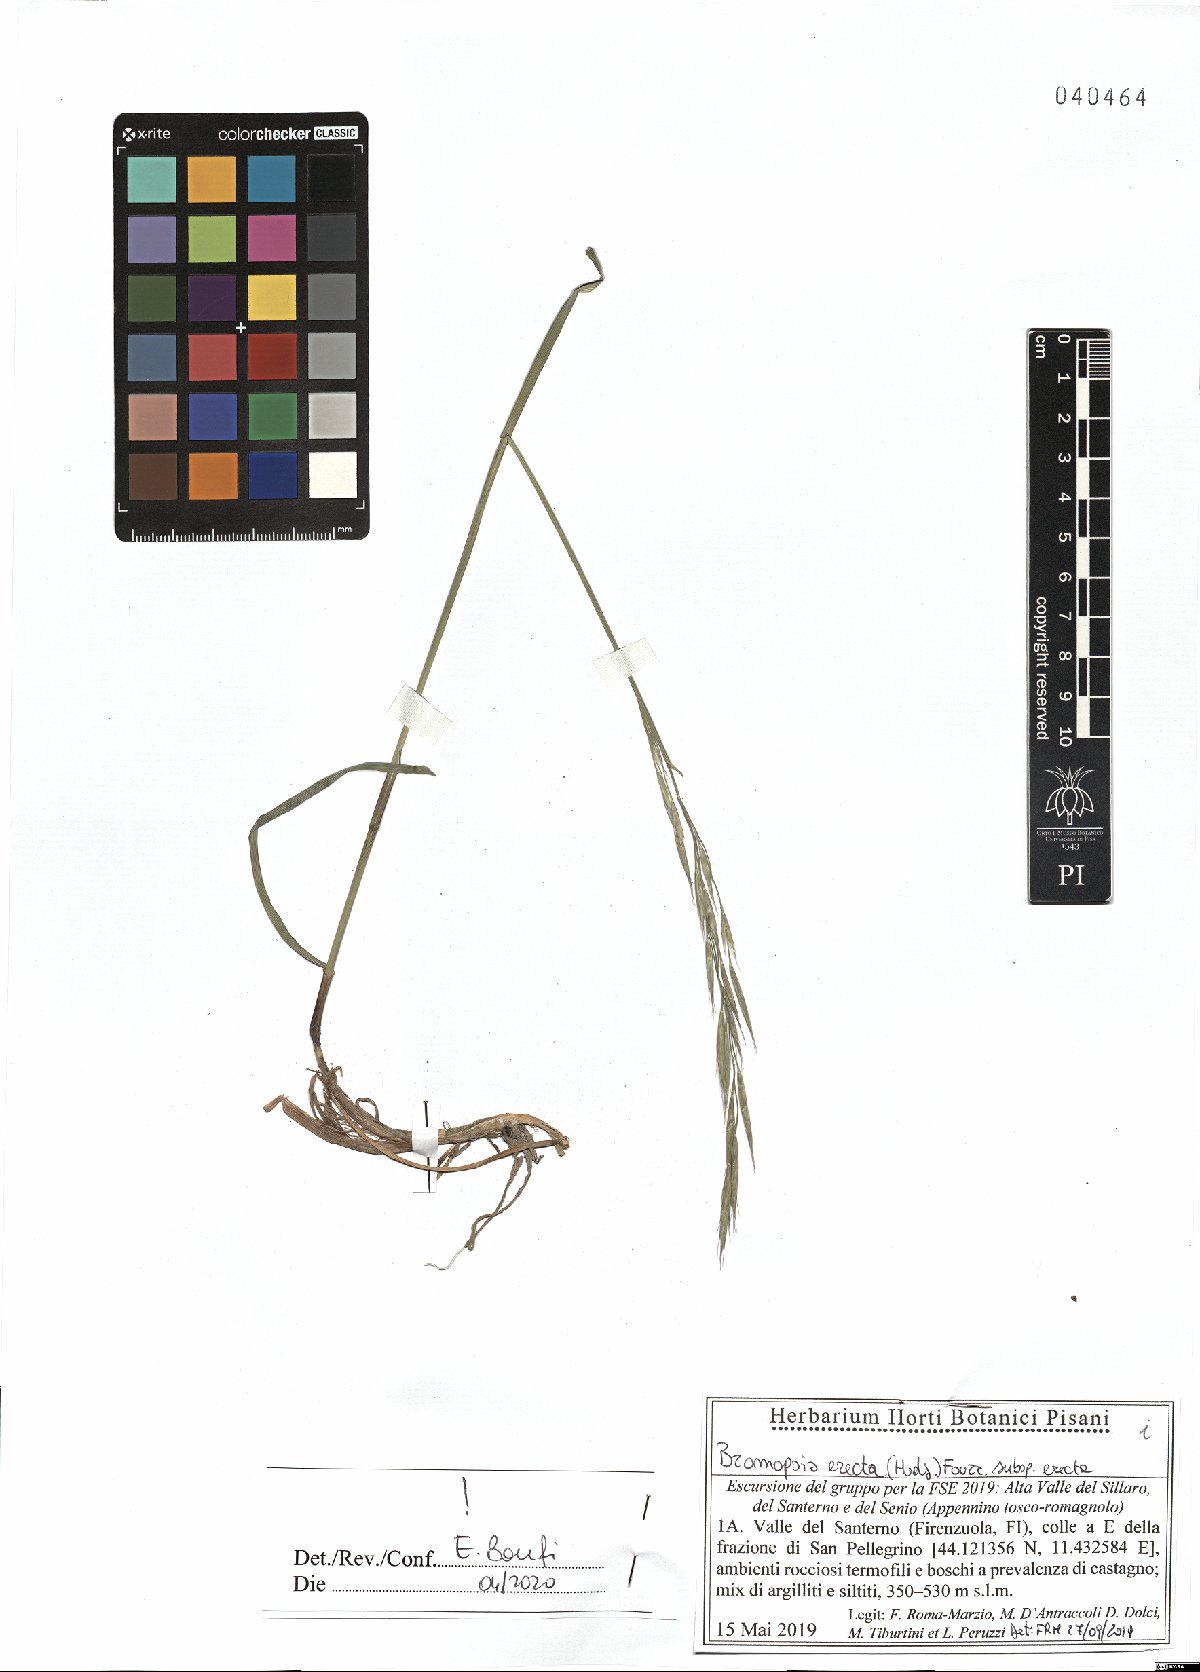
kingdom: Plantae
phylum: Tracheophyta
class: Liliopsida
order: Poales
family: Poaceae
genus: Bromus
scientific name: Bromus erectus
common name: Erect brome
